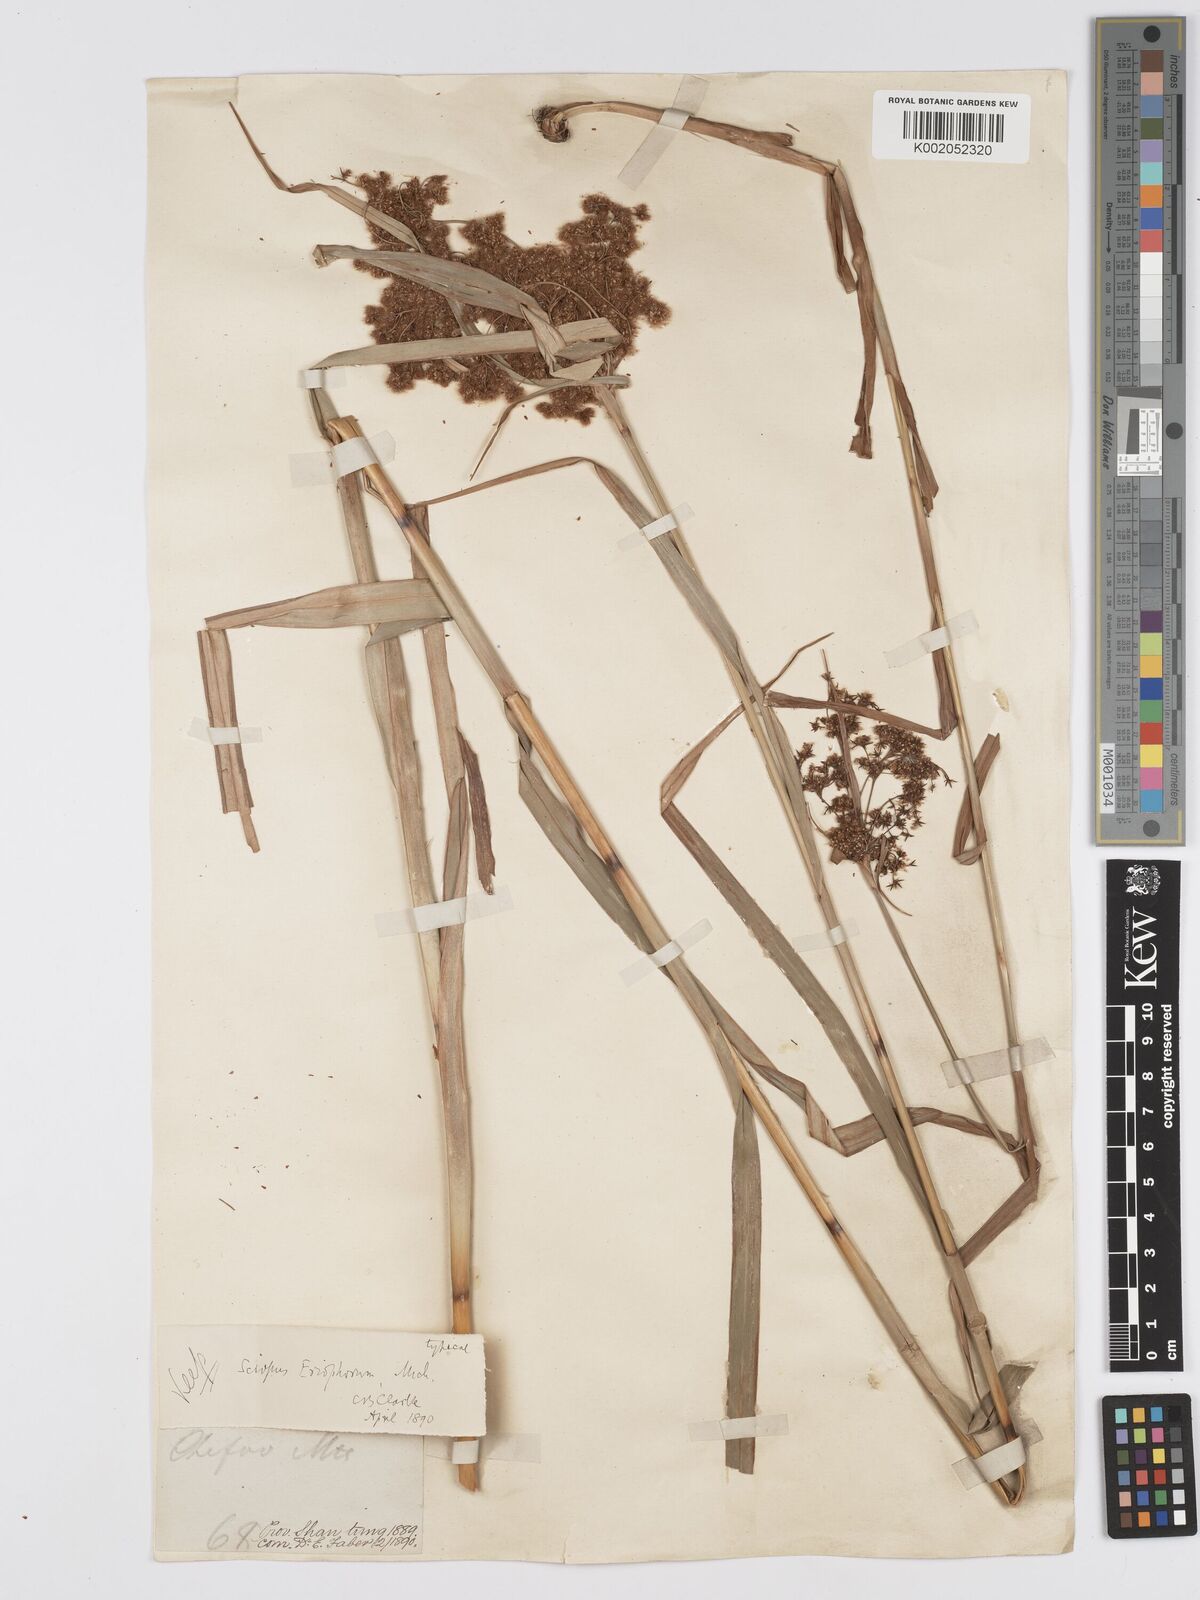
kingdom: Plantae
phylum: Tracheophyta
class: Liliopsida
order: Poales
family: Cyperaceae
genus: Scirpus
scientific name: Scirpus cyperinus
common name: Black-sheathed bulrush
